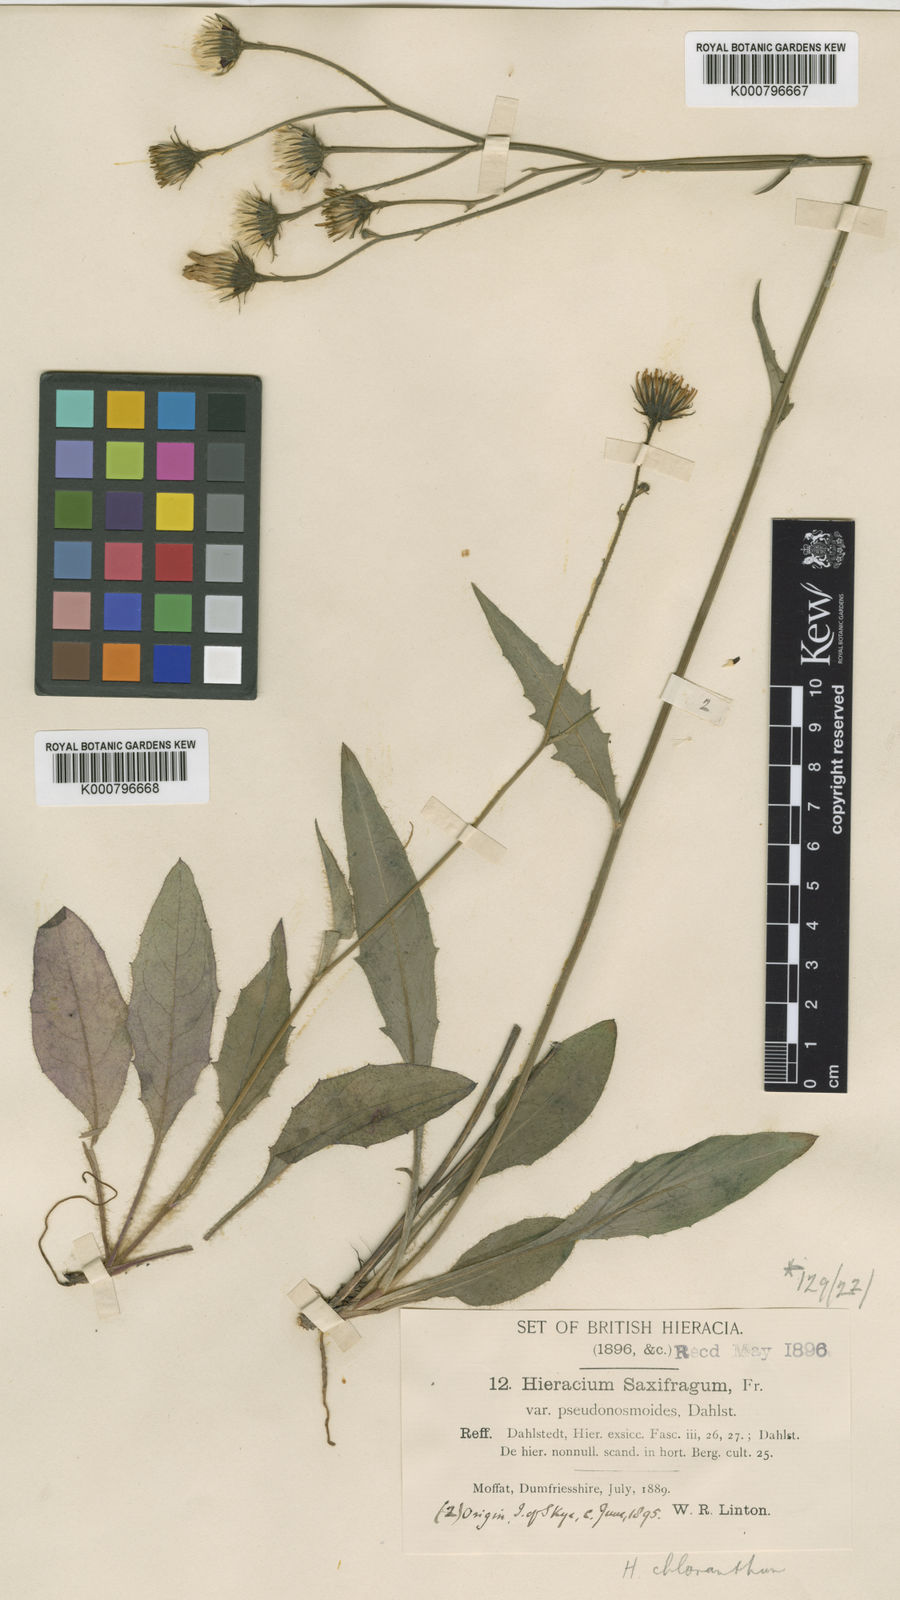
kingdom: Plantae
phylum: Tracheophyta
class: Magnoliopsida
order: Asterales
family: Asteraceae
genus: Hieracium
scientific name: Hieracium chloranthum
